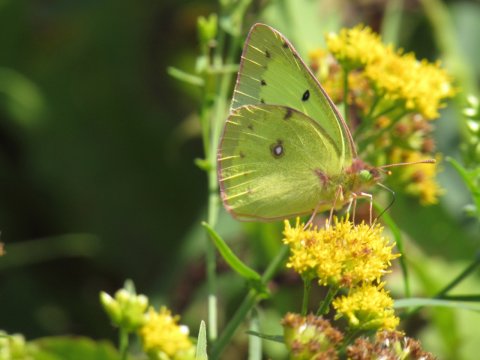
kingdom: Animalia
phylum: Arthropoda
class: Insecta
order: Lepidoptera
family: Pieridae
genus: Colias
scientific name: Colias philodice
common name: Clouded Sulphur
